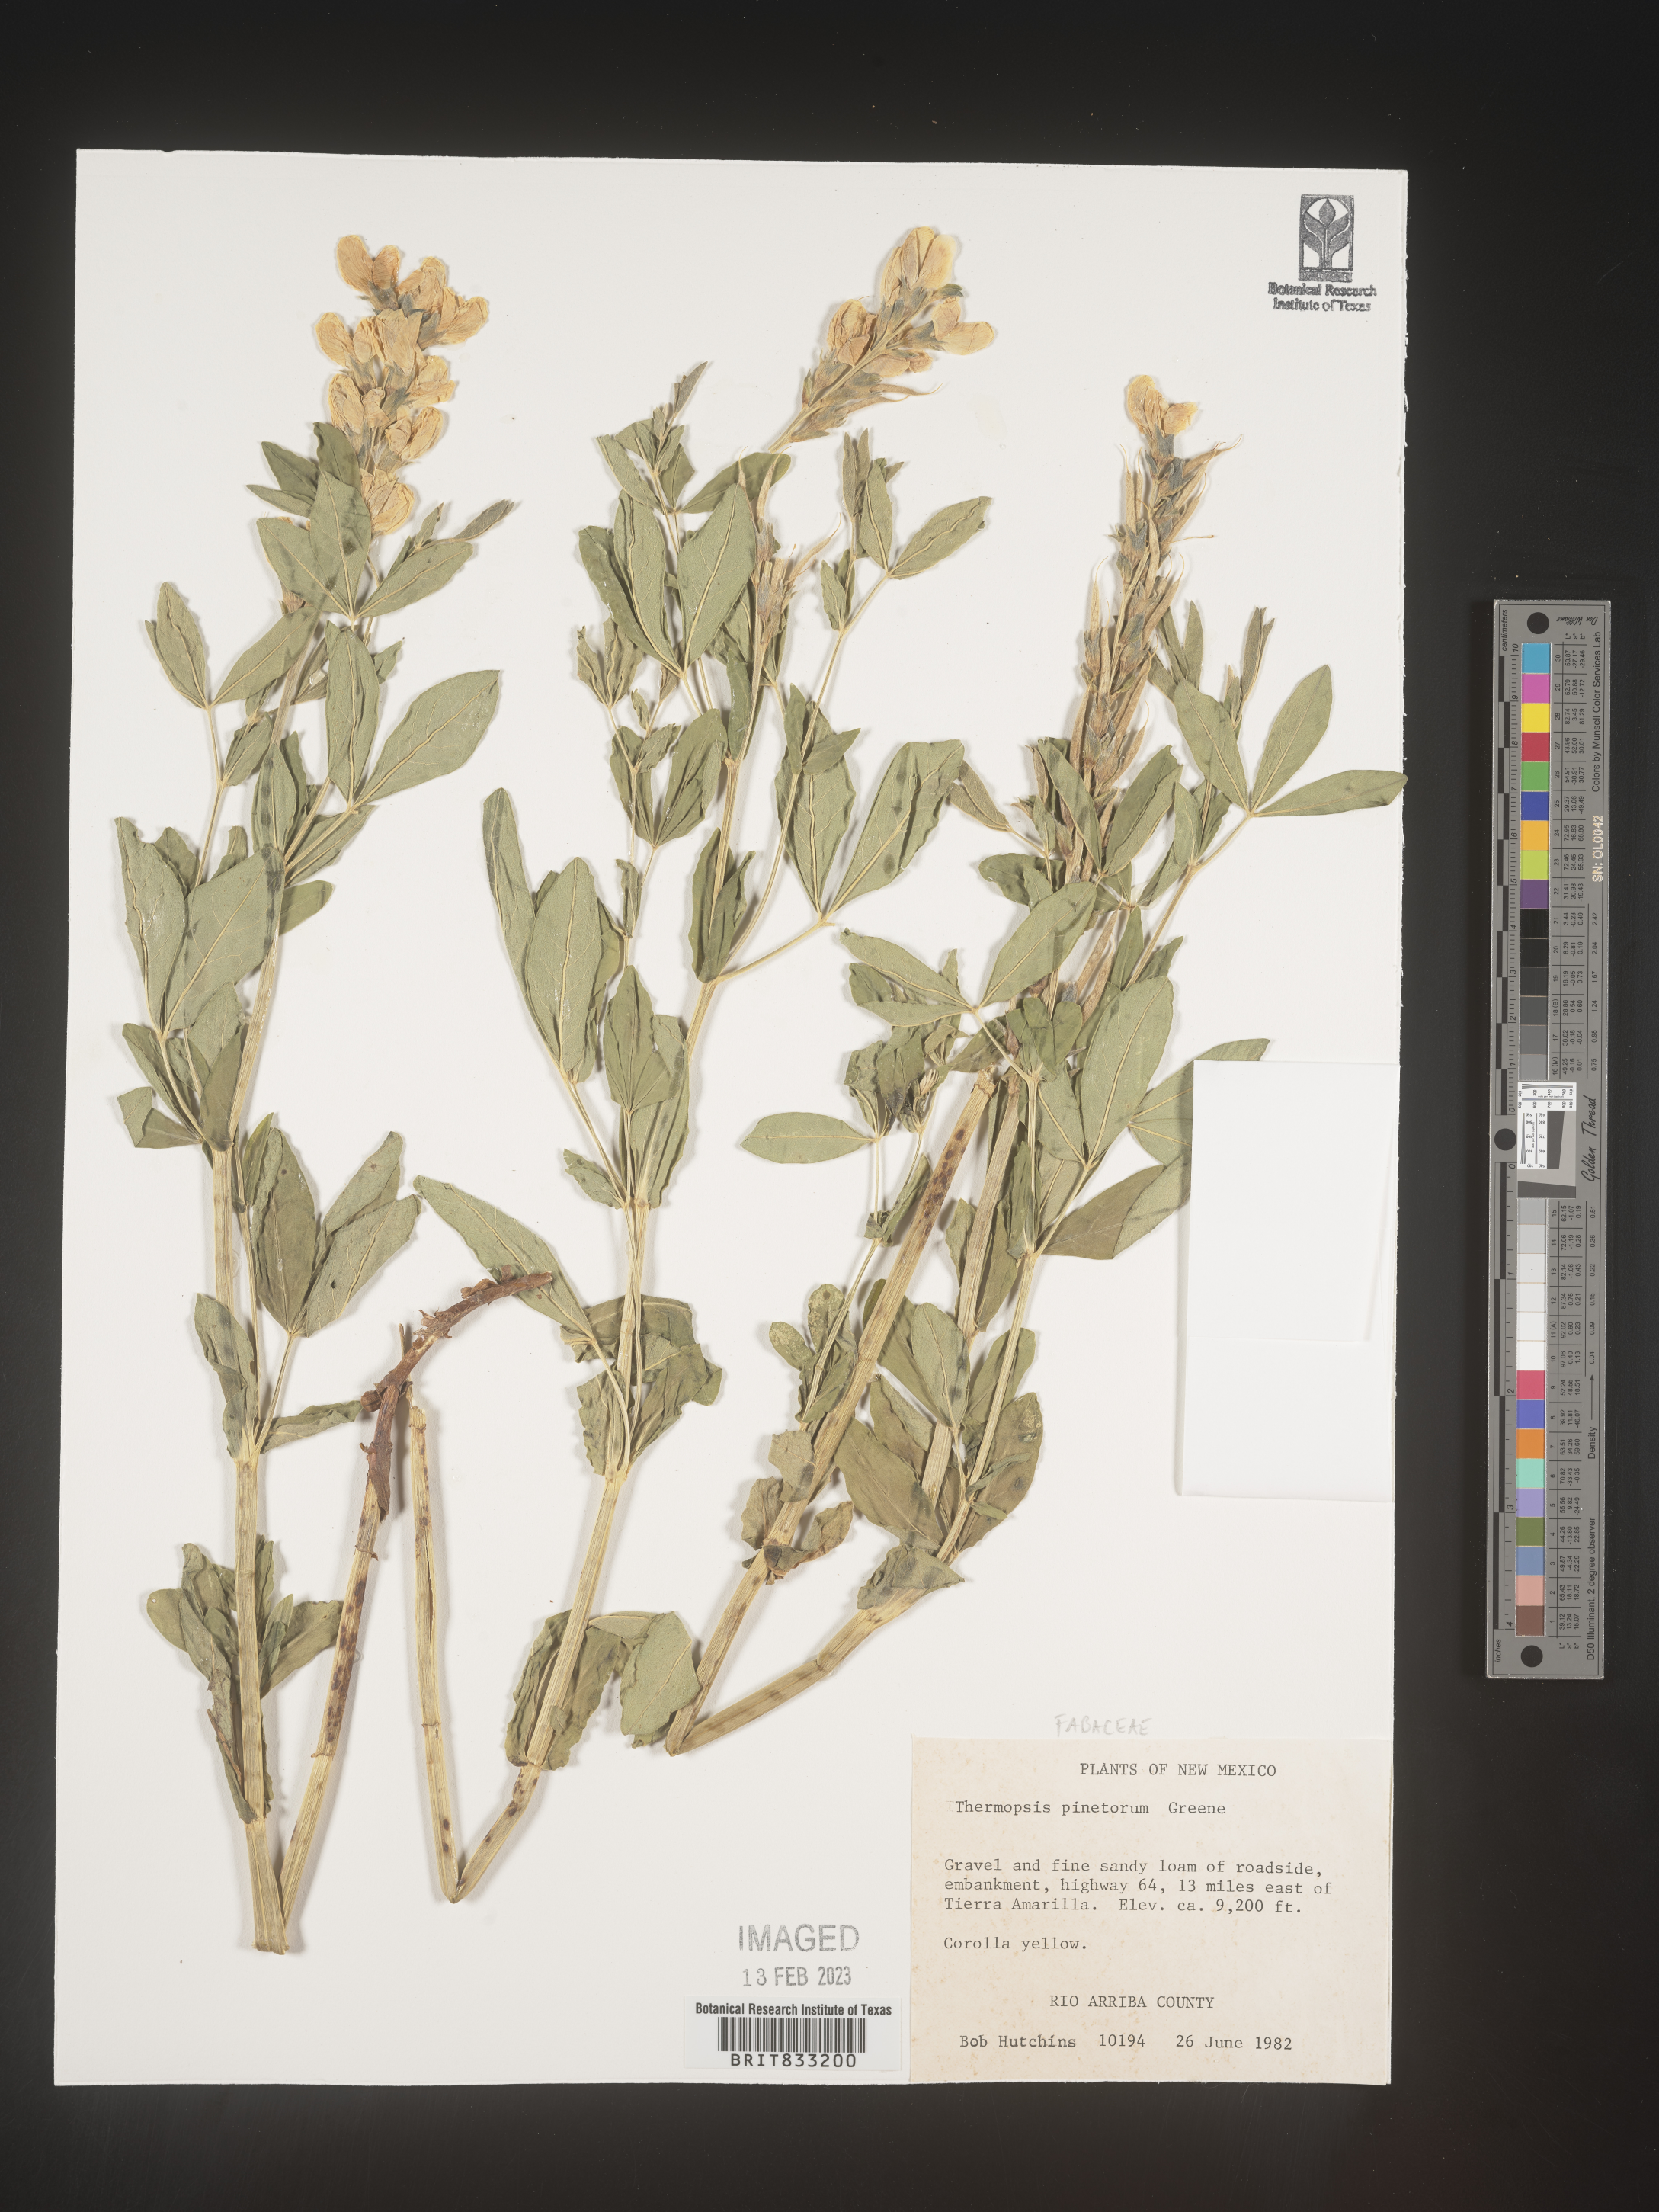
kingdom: Plantae
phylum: Tracheophyta
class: Magnoliopsida
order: Fabales
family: Fabaceae
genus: Thermopsis
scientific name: Thermopsis rhombifolia
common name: Circle-pod-pea
